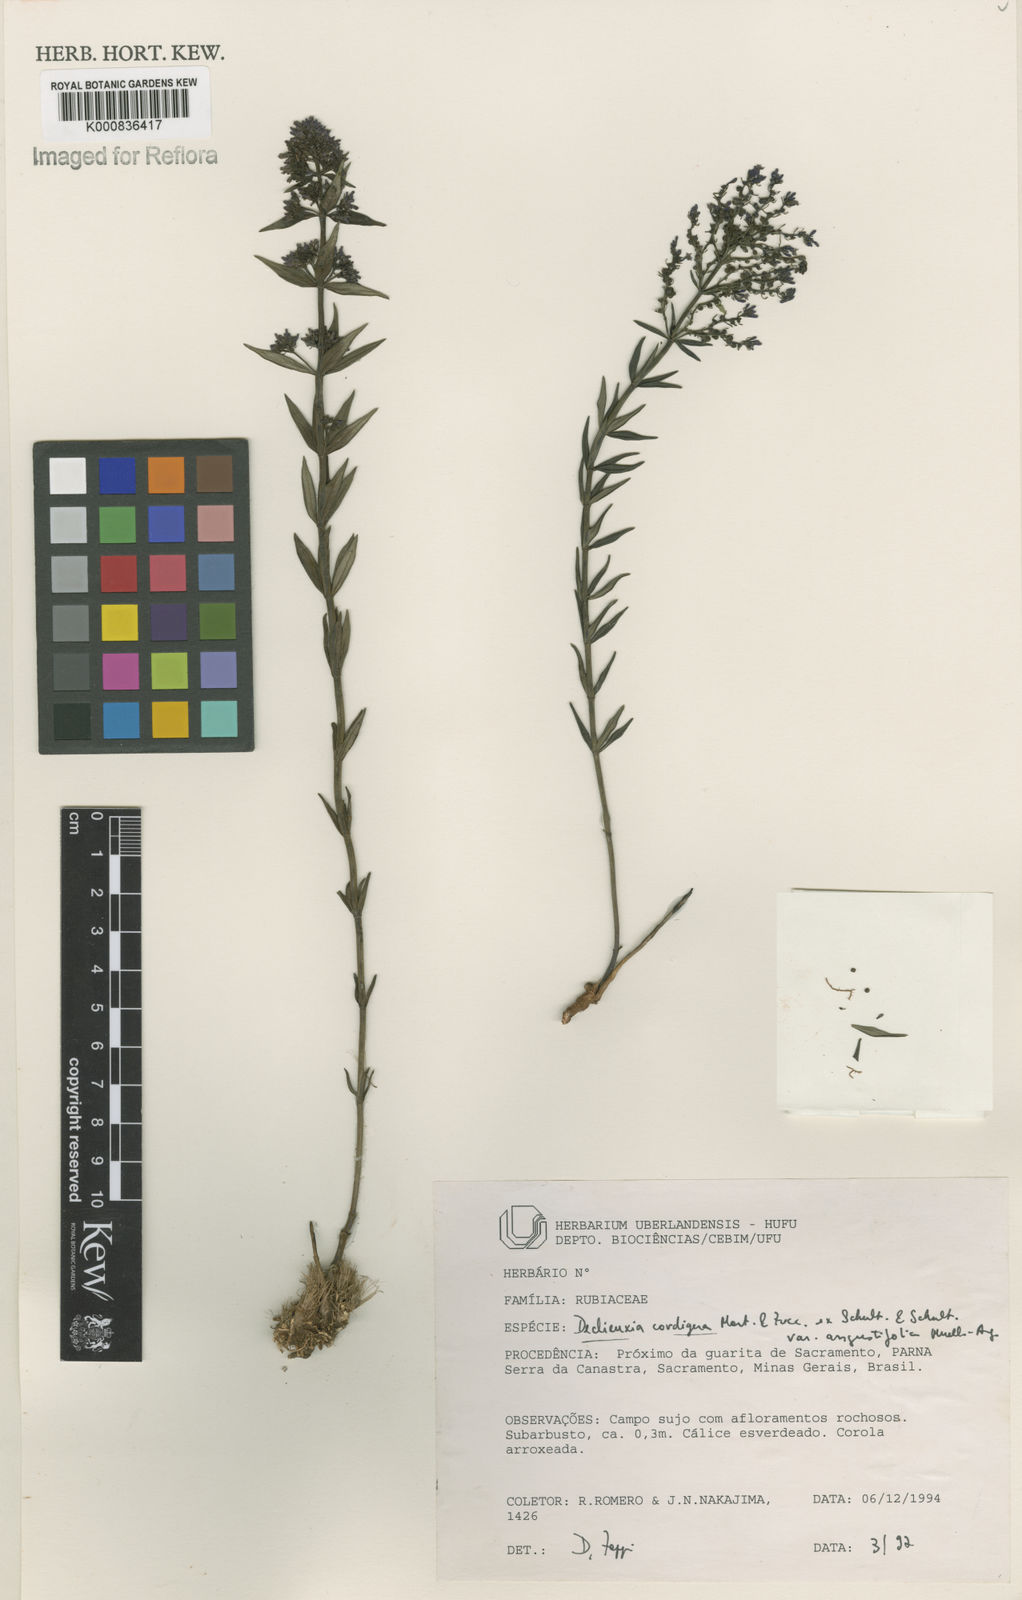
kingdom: Plantae
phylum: Tracheophyta
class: Magnoliopsida
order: Gentianales
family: Rubiaceae
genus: Declieuxia
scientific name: Declieuxia
